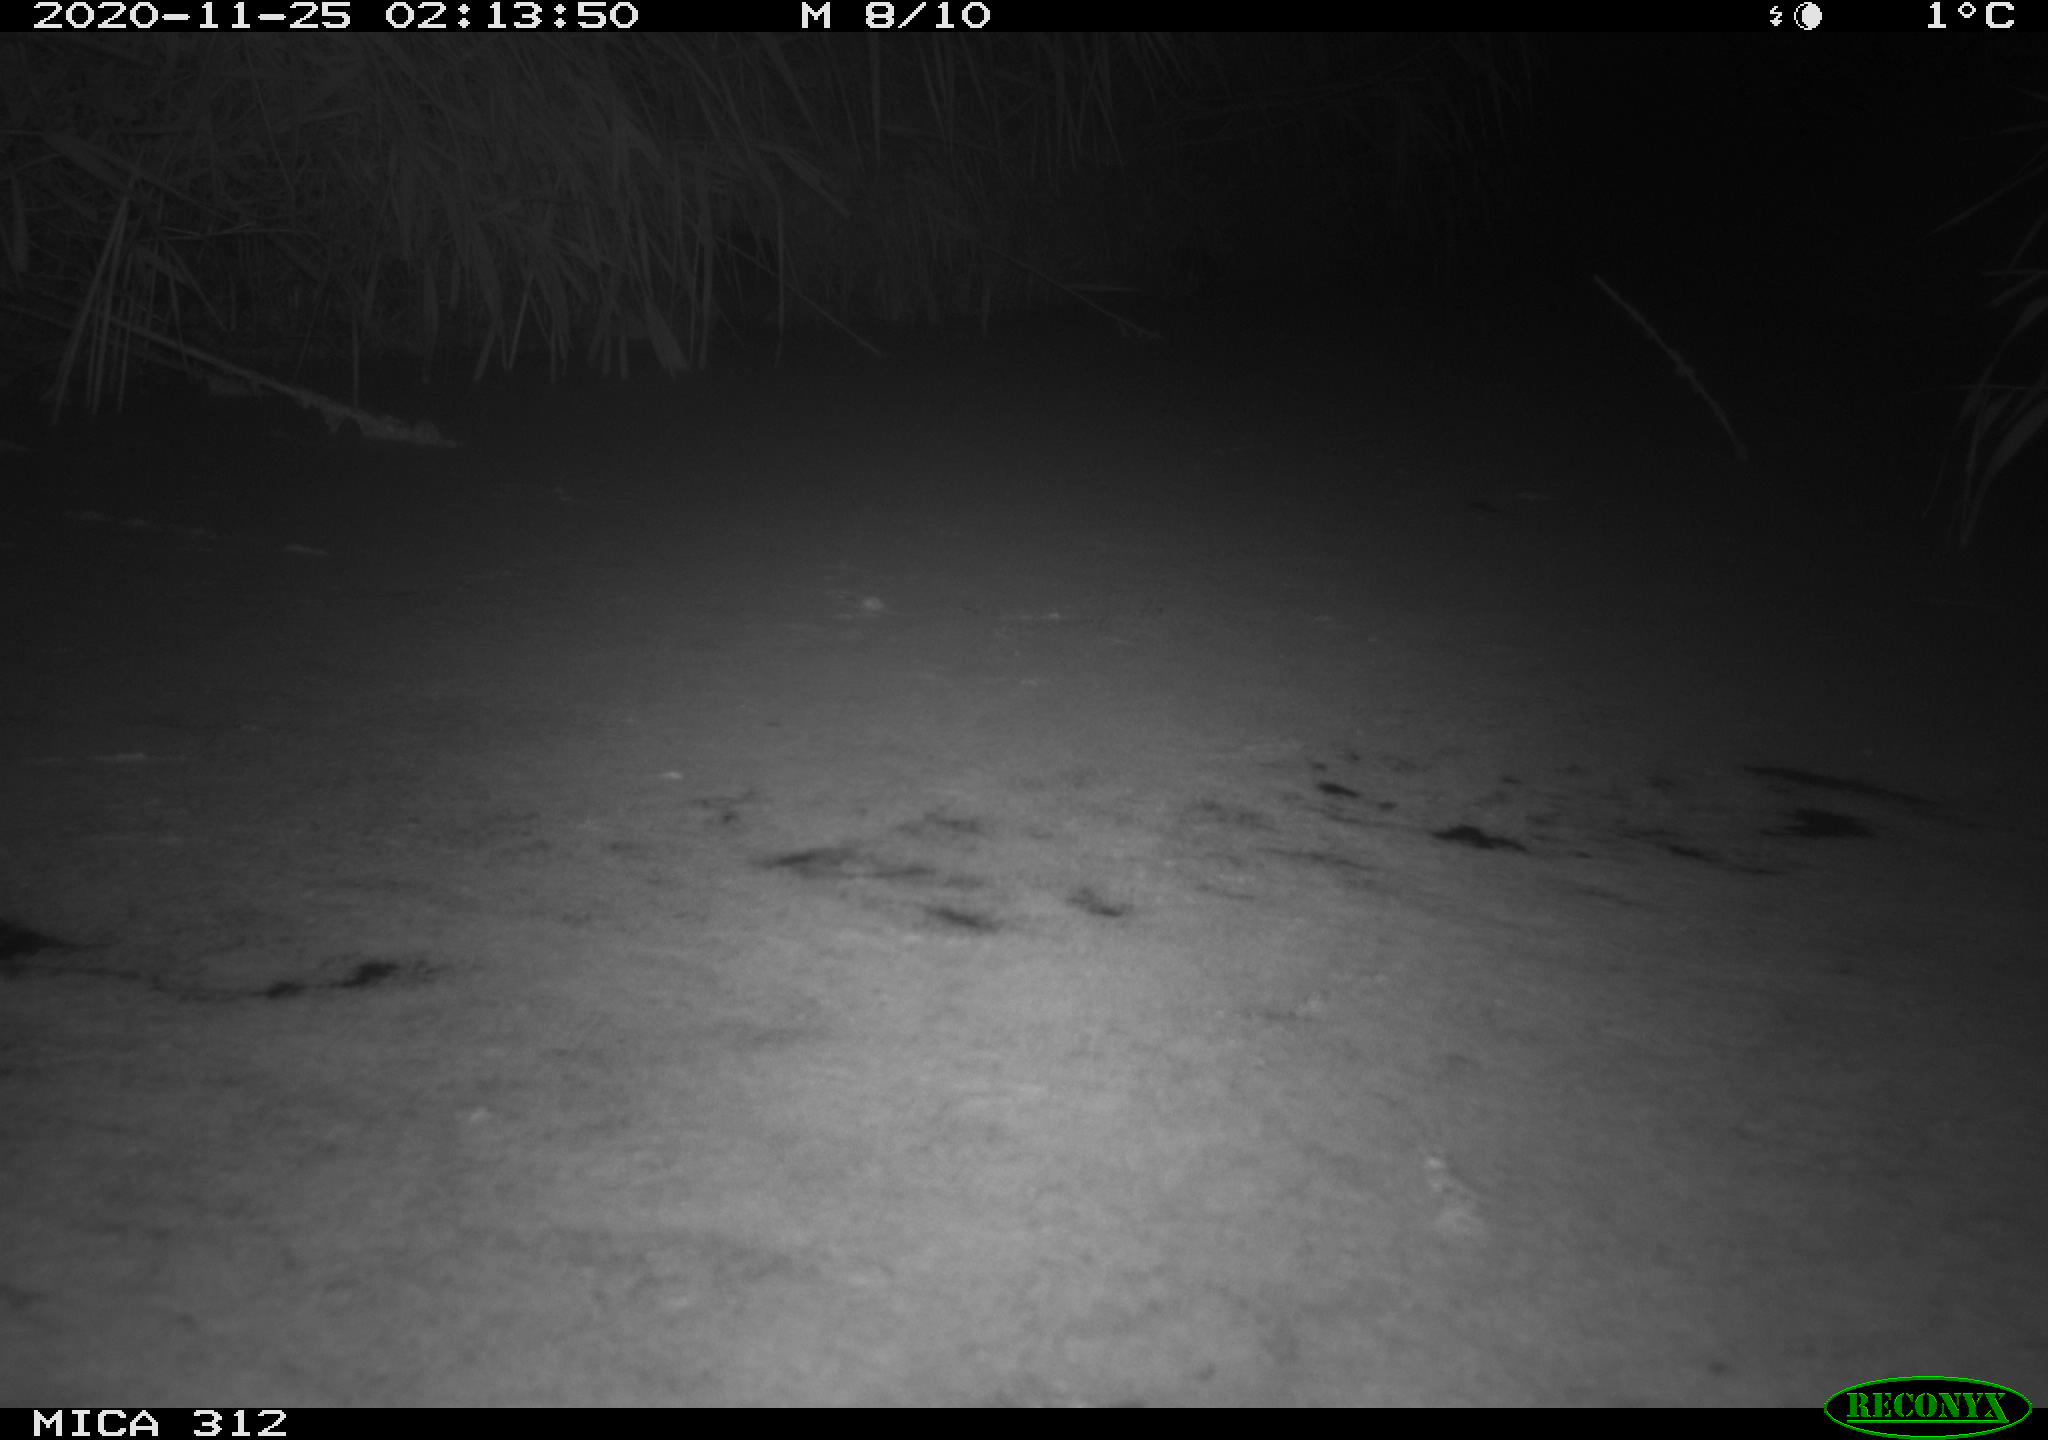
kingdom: Animalia
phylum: Chordata
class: Mammalia
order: Rodentia
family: Muridae
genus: Rattus
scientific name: Rattus norvegicus
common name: Brown rat
